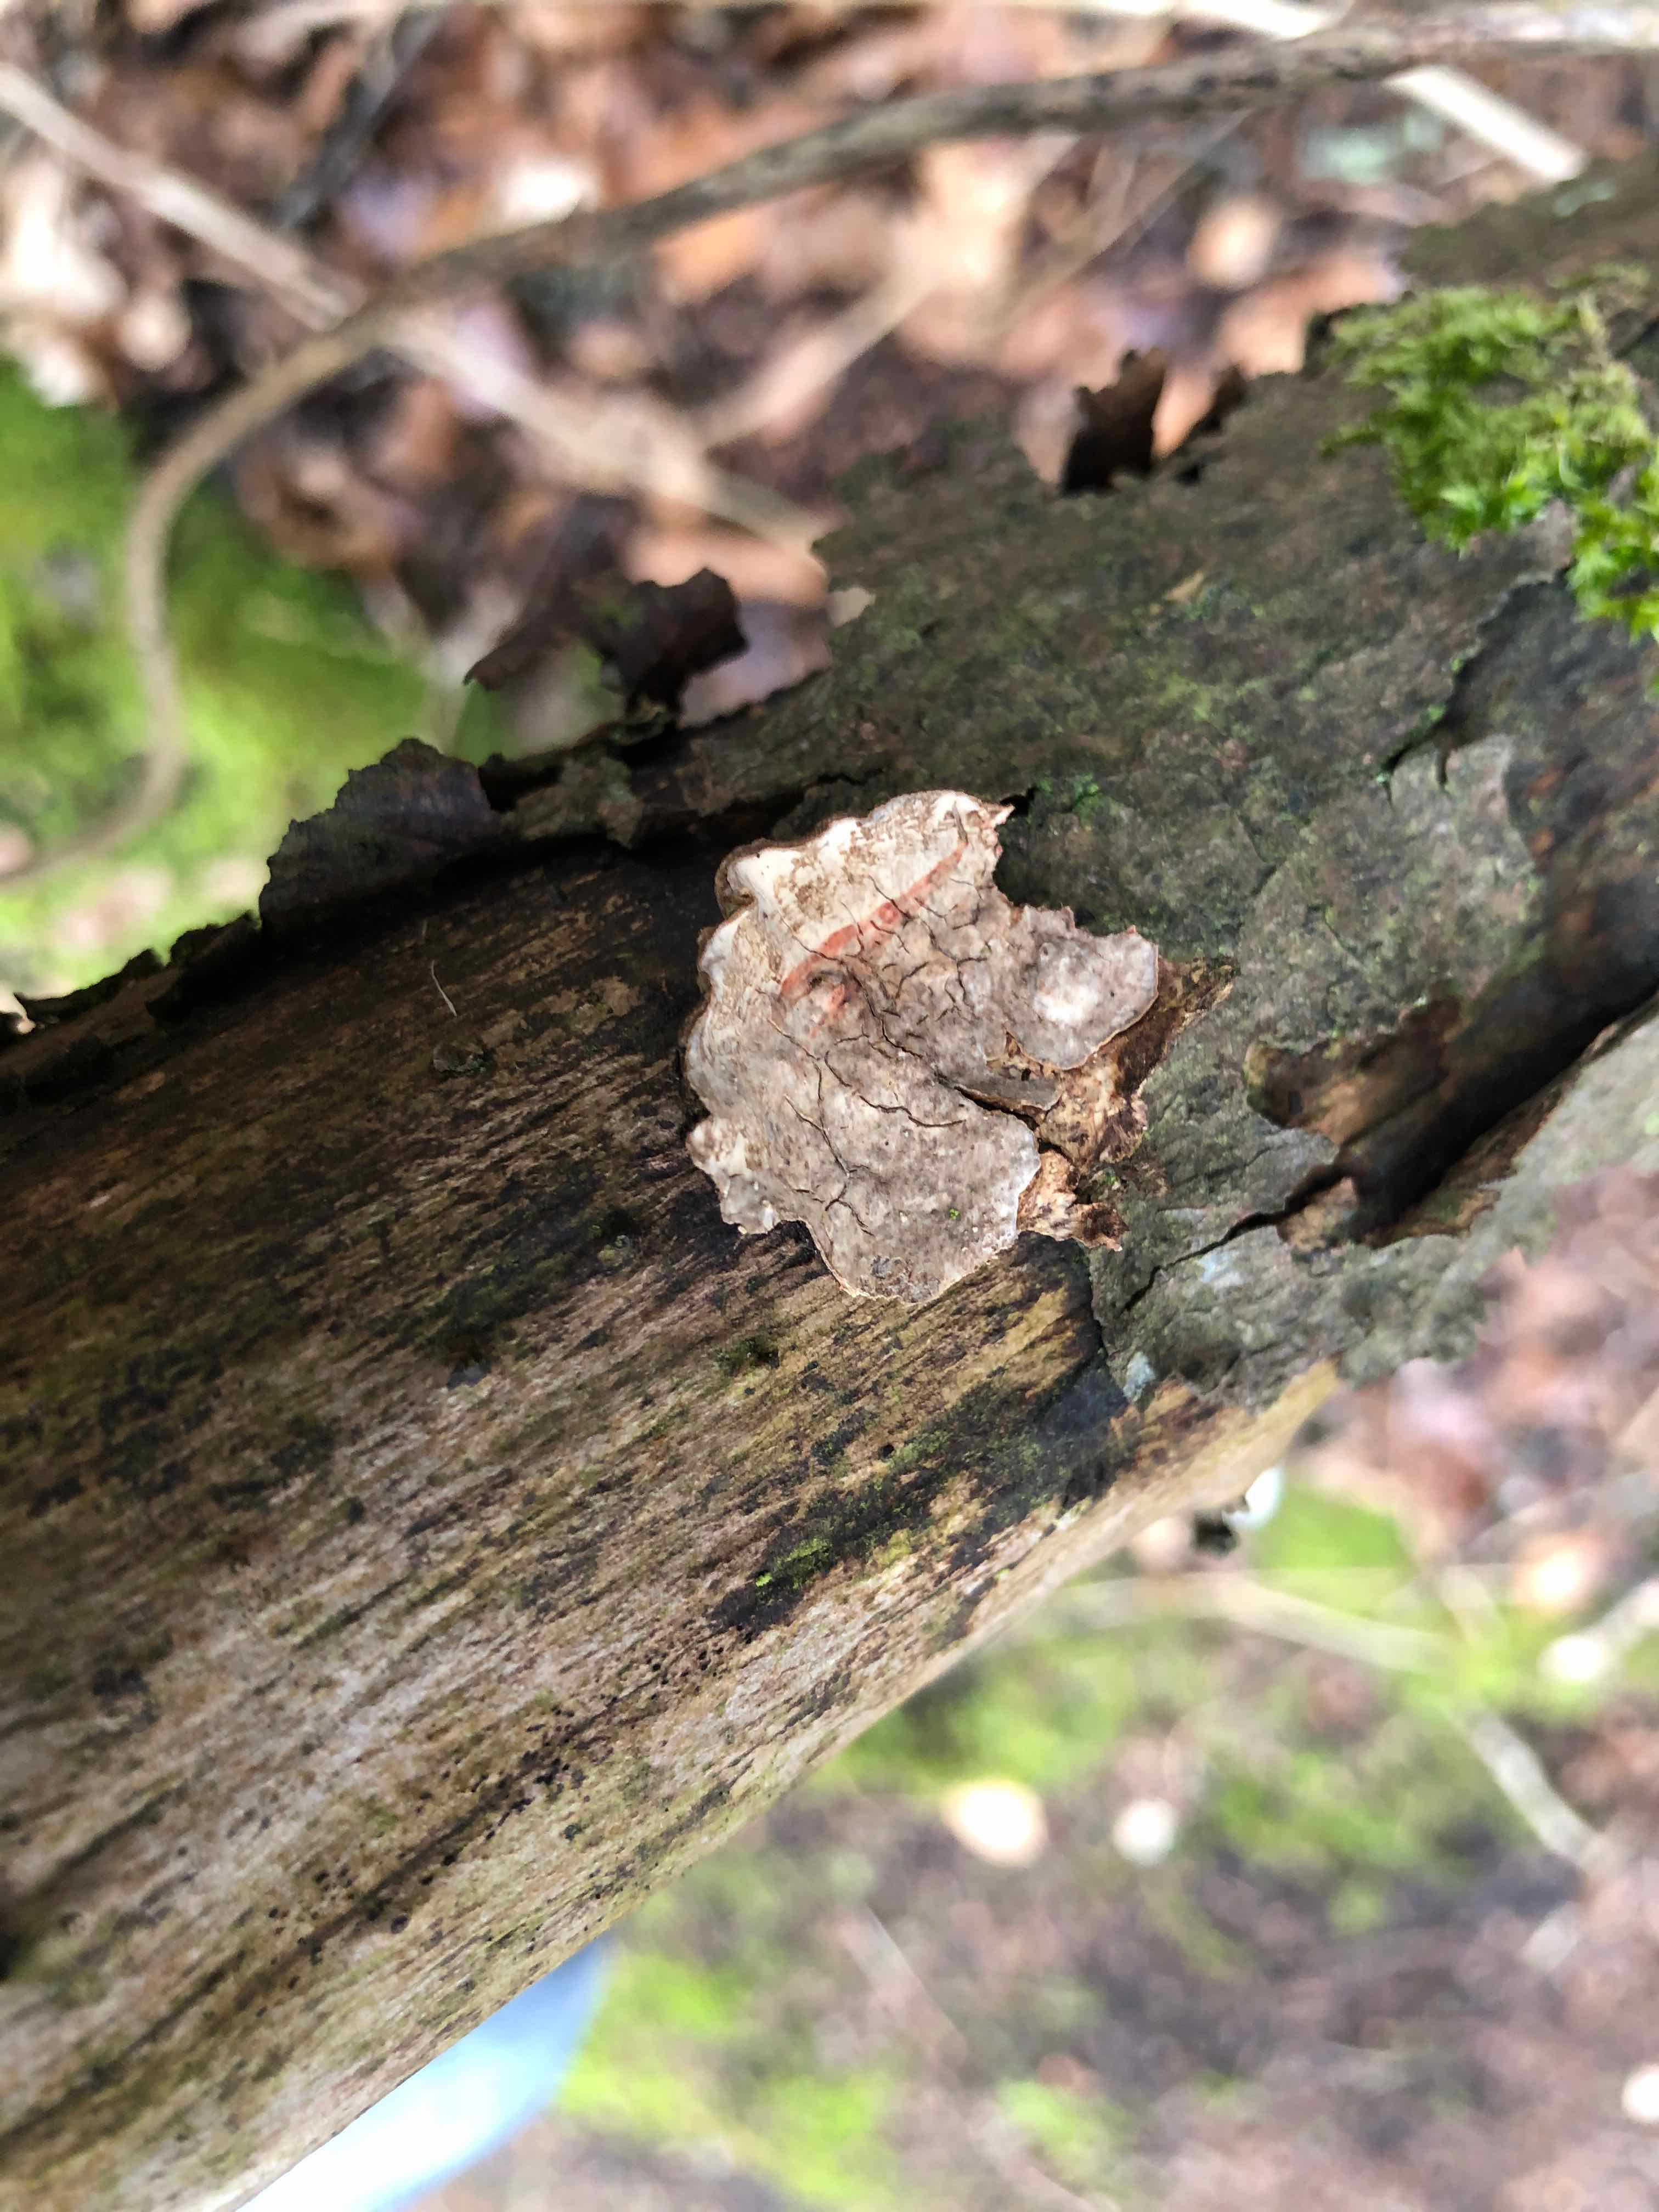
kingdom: Fungi
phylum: Basidiomycota
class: Agaricomycetes
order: Russulales
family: Stereaceae
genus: Stereum
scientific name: Stereum rugosum
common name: rynket lædersvamp
